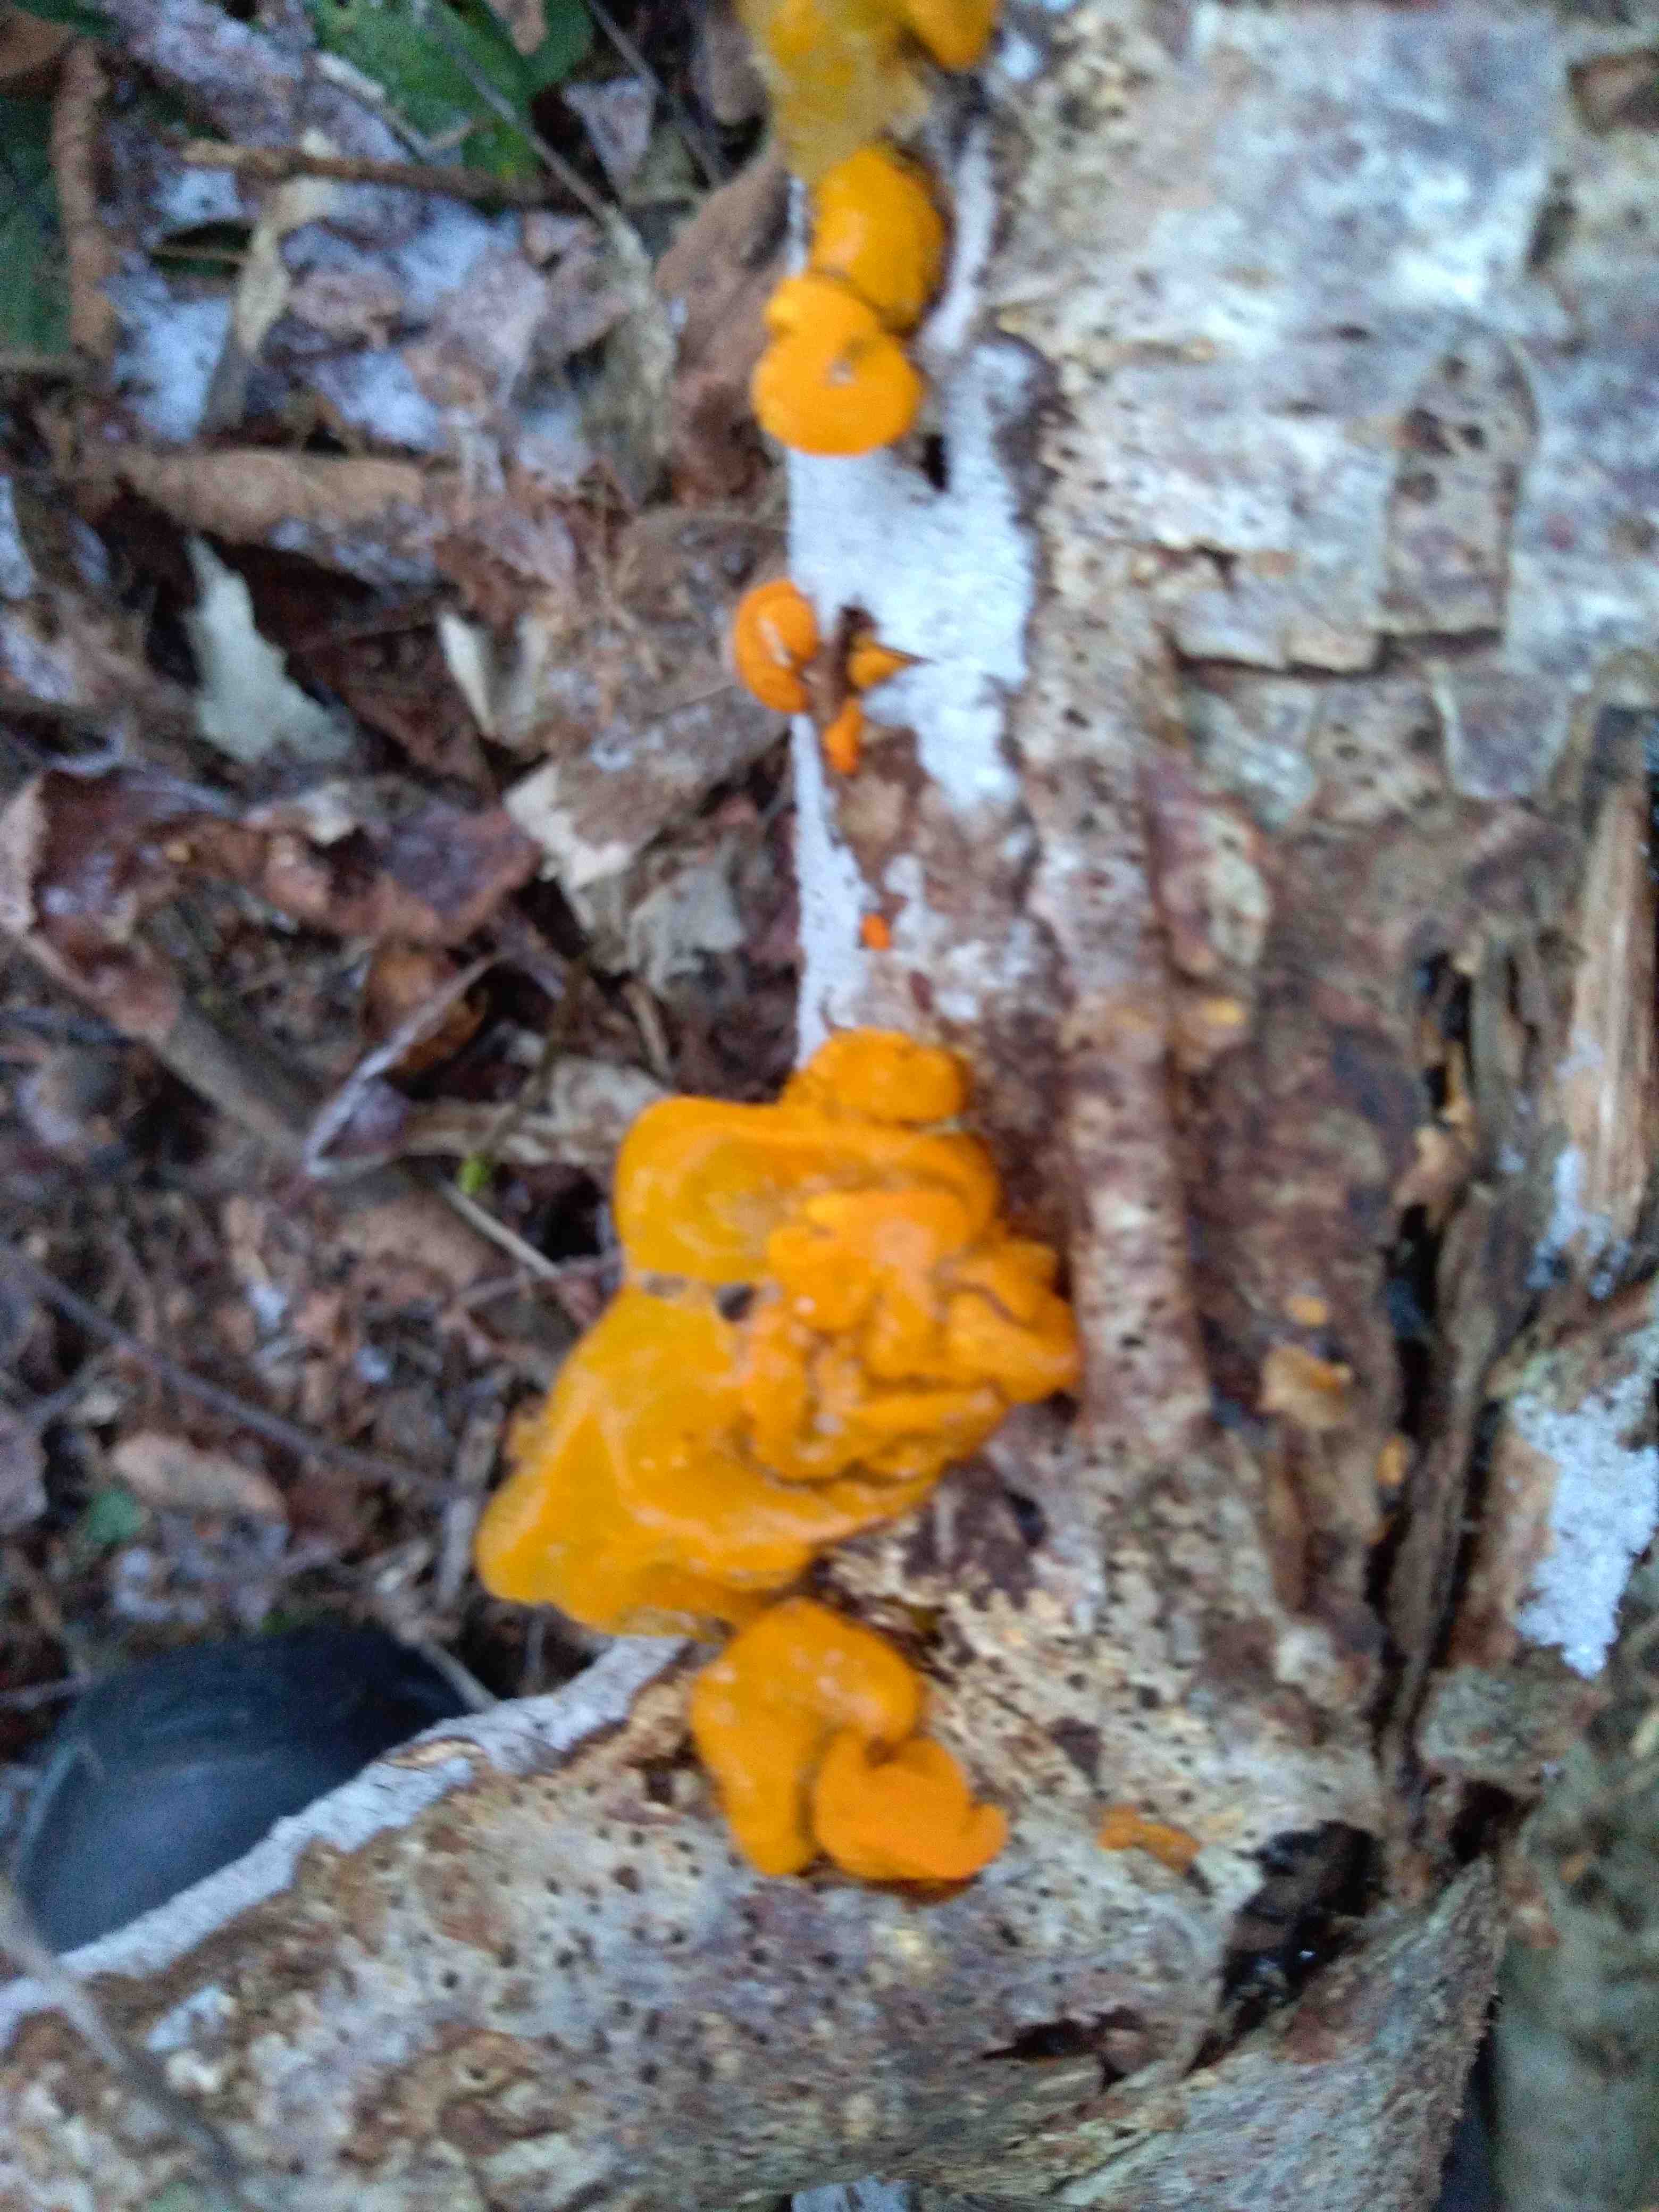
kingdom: Fungi
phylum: Basidiomycota
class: Tremellomycetes
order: Tremellales
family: Tremellaceae
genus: Tremella
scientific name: Tremella mesenterica
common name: gul bævresvamp
